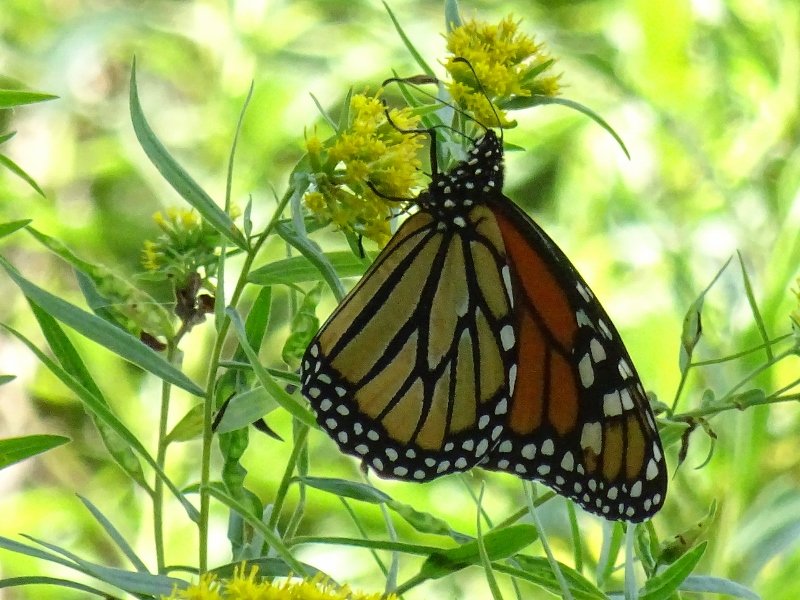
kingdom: Animalia
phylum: Arthropoda
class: Insecta
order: Lepidoptera
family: Nymphalidae
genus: Danaus
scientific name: Danaus plexippus
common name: Monarch
